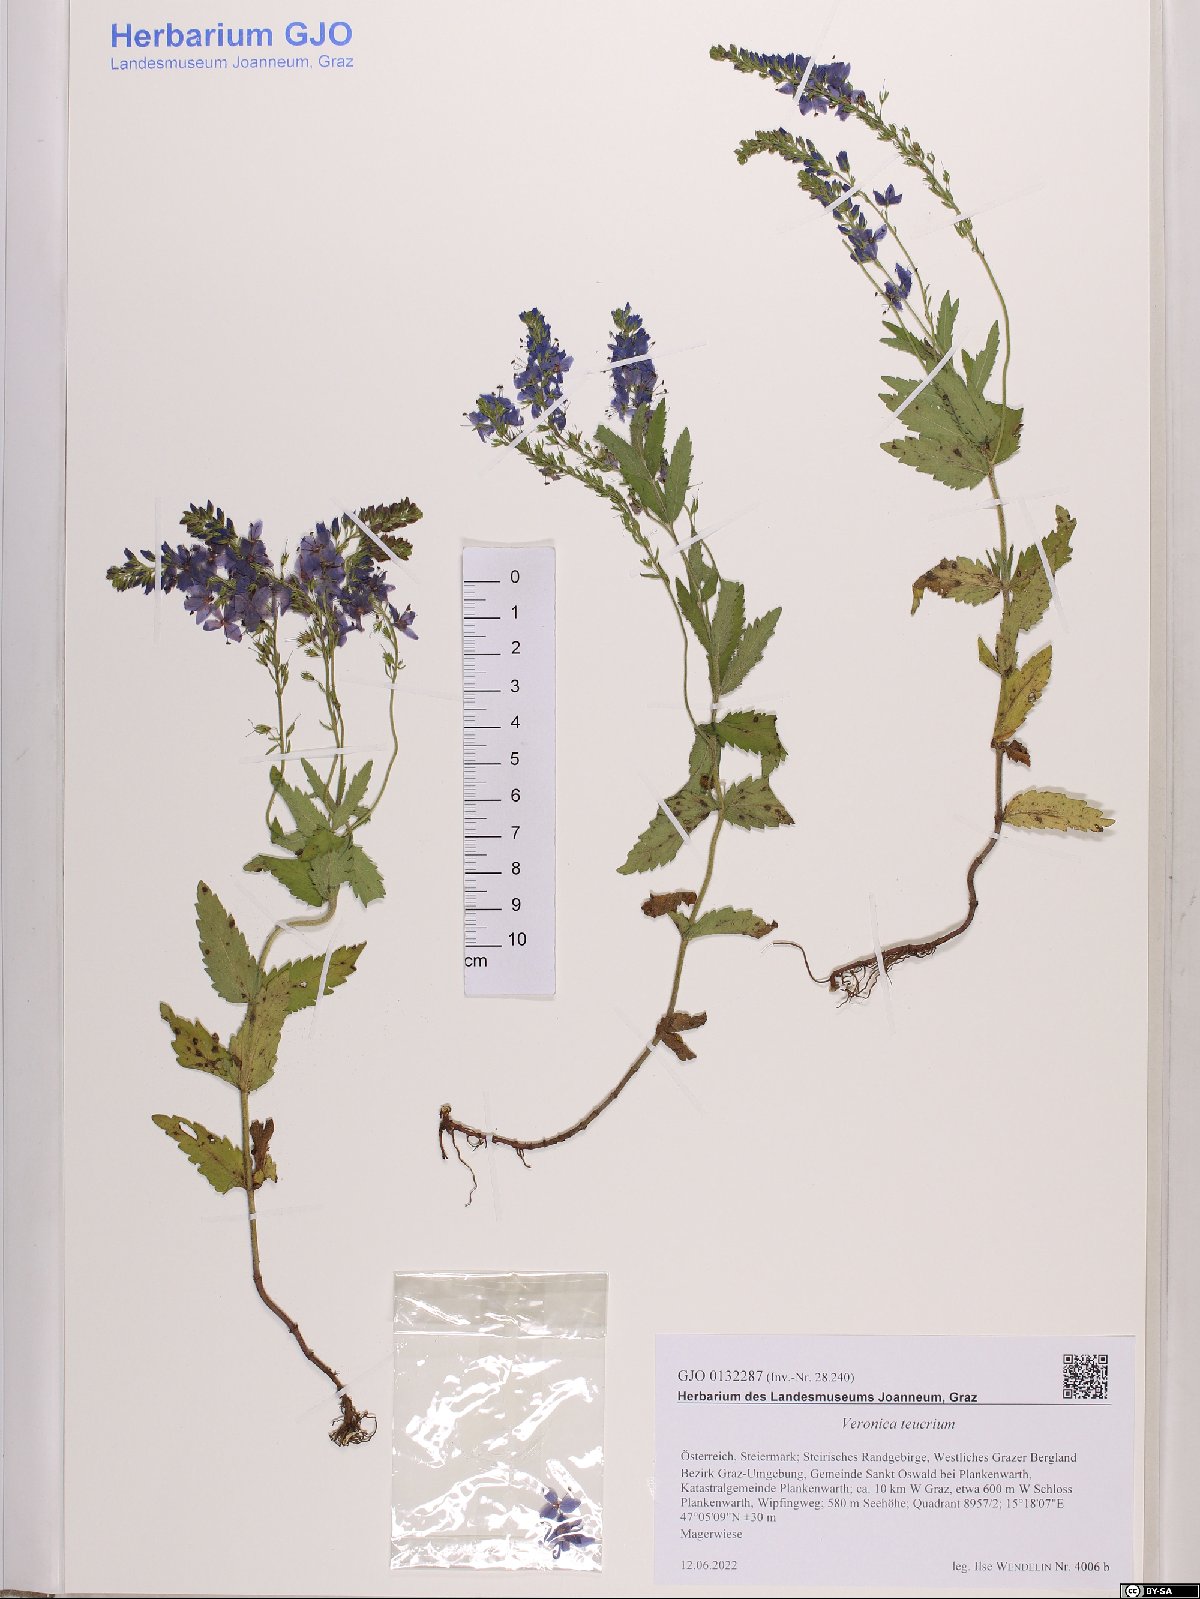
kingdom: Plantae
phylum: Tracheophyta
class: Magnoliopsida
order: Lamiales
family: Plantaginaceae
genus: Veronica
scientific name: Veronica teucrium
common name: Large speedwell
